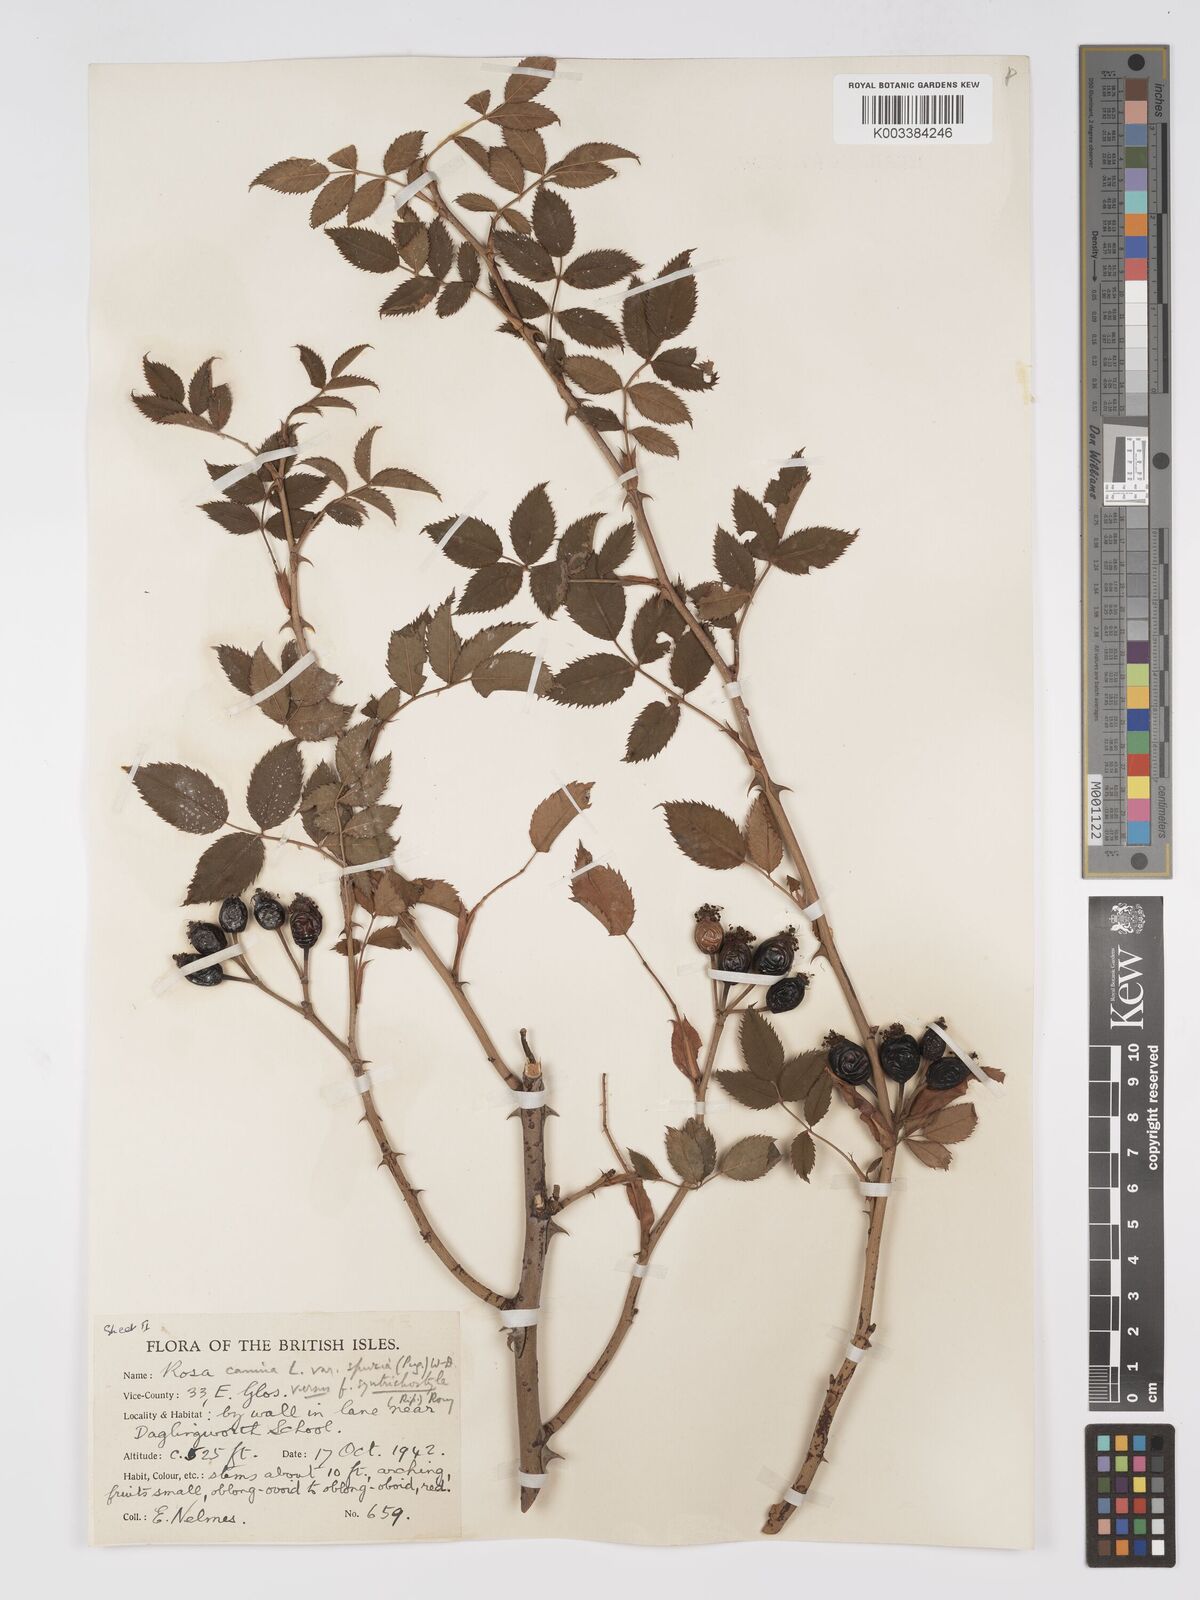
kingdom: Plantae
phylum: Tracheophyta
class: Magnoliopsida
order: Rosales
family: Rosaceae
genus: Rosa
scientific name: Rosa canina
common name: Dog rose
